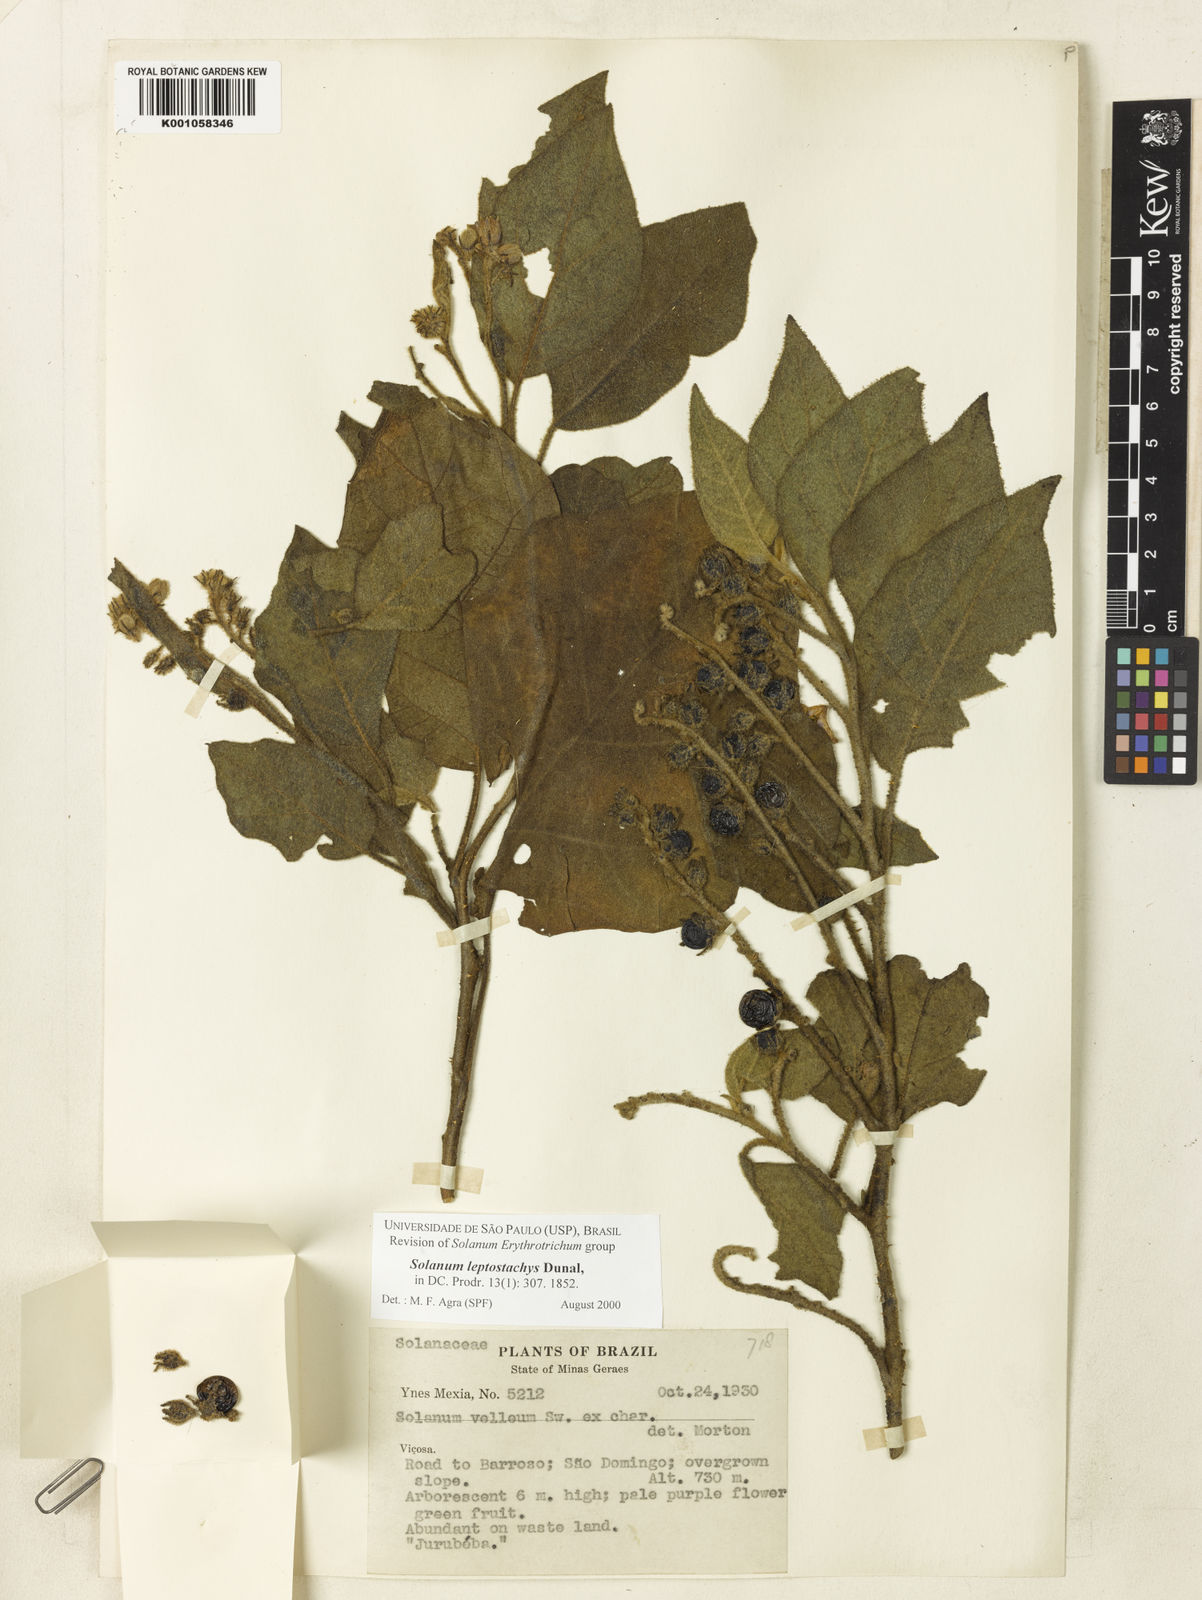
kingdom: Plantae
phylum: Tracheophyta
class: Magnoliopsida
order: Solanales
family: Solanaceae
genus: Solanum
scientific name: Solanum leptostachys
